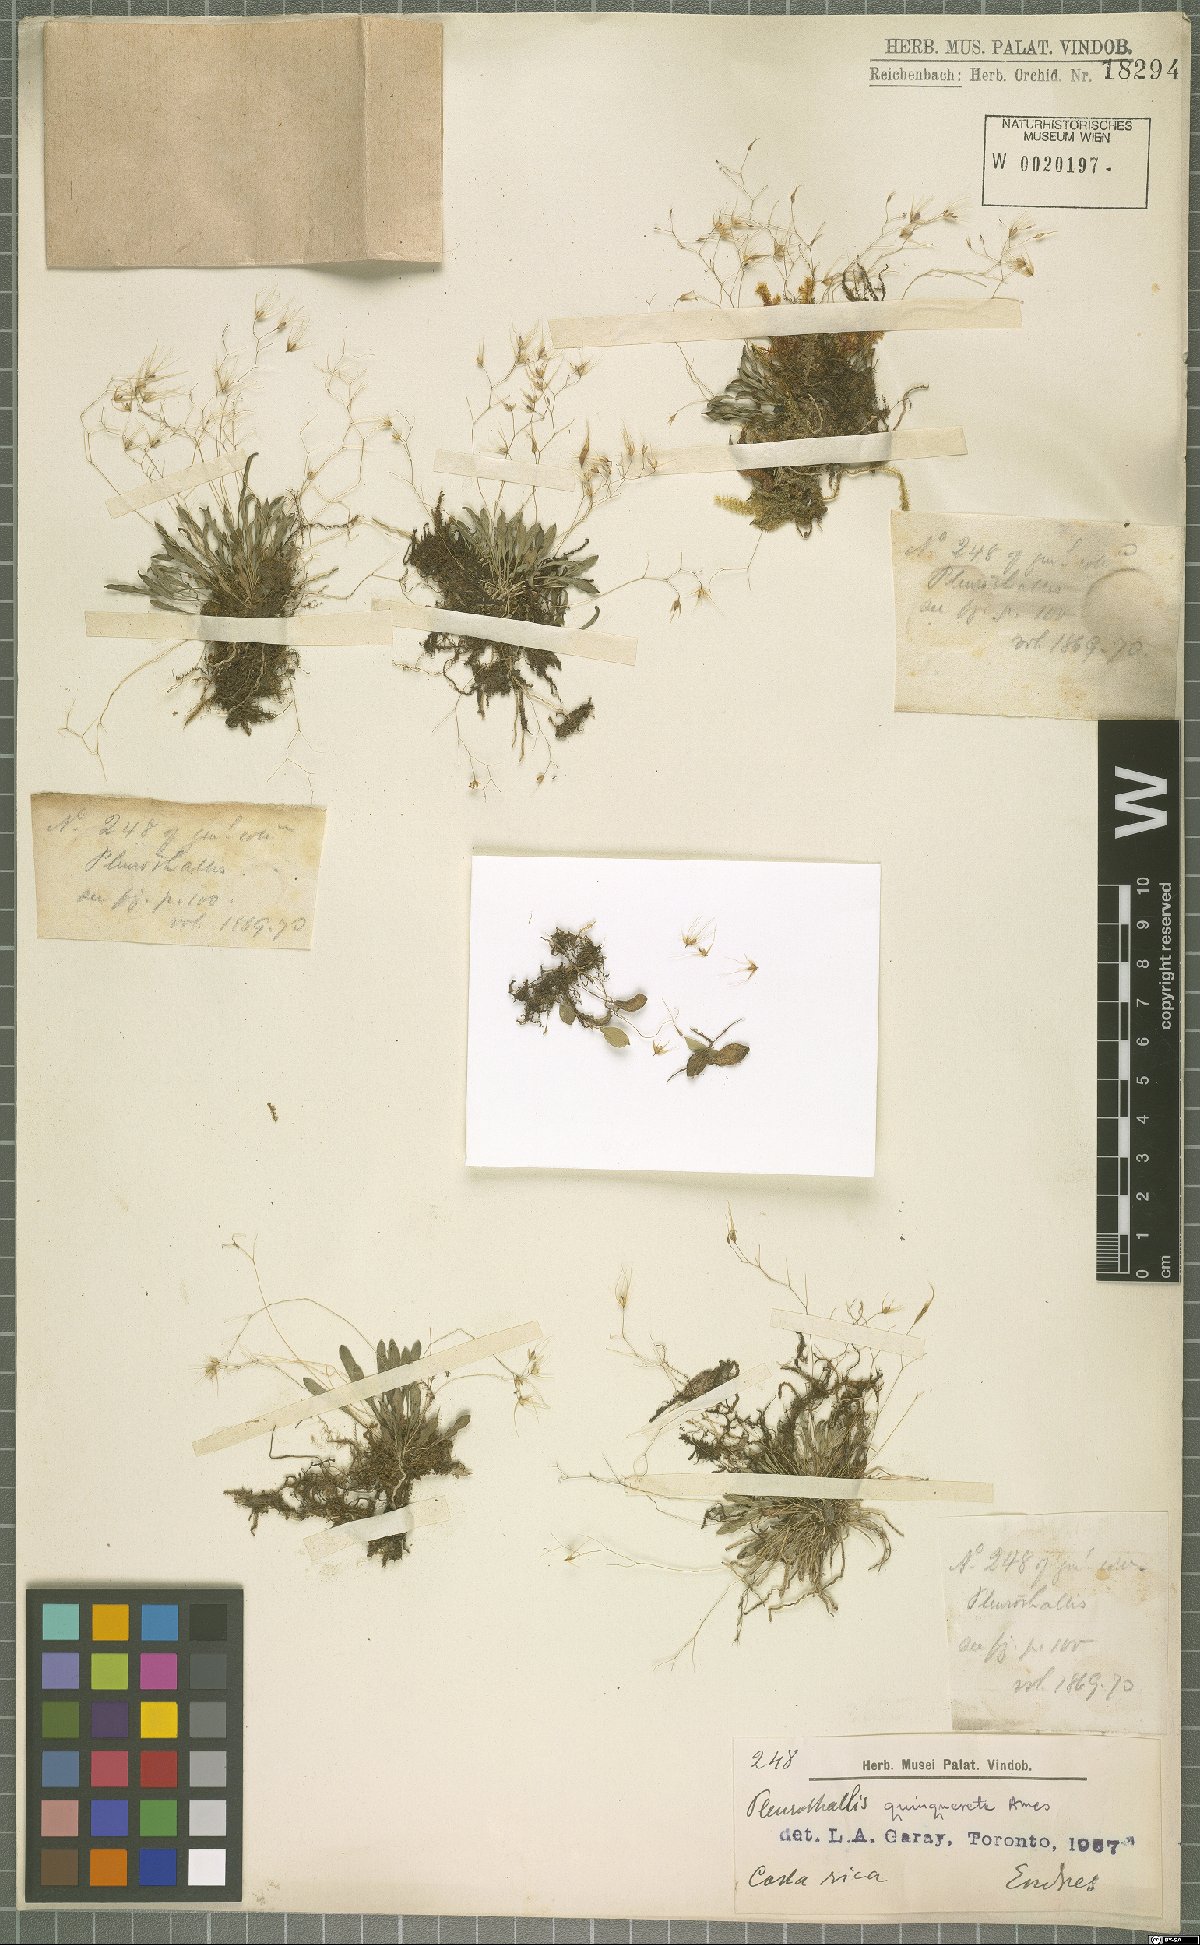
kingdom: Plantae
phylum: Tracheophyta
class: Liliopsida
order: Asparagales
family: Orchidaceae
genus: Muscarella
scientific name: Muscarella quinqueseta
